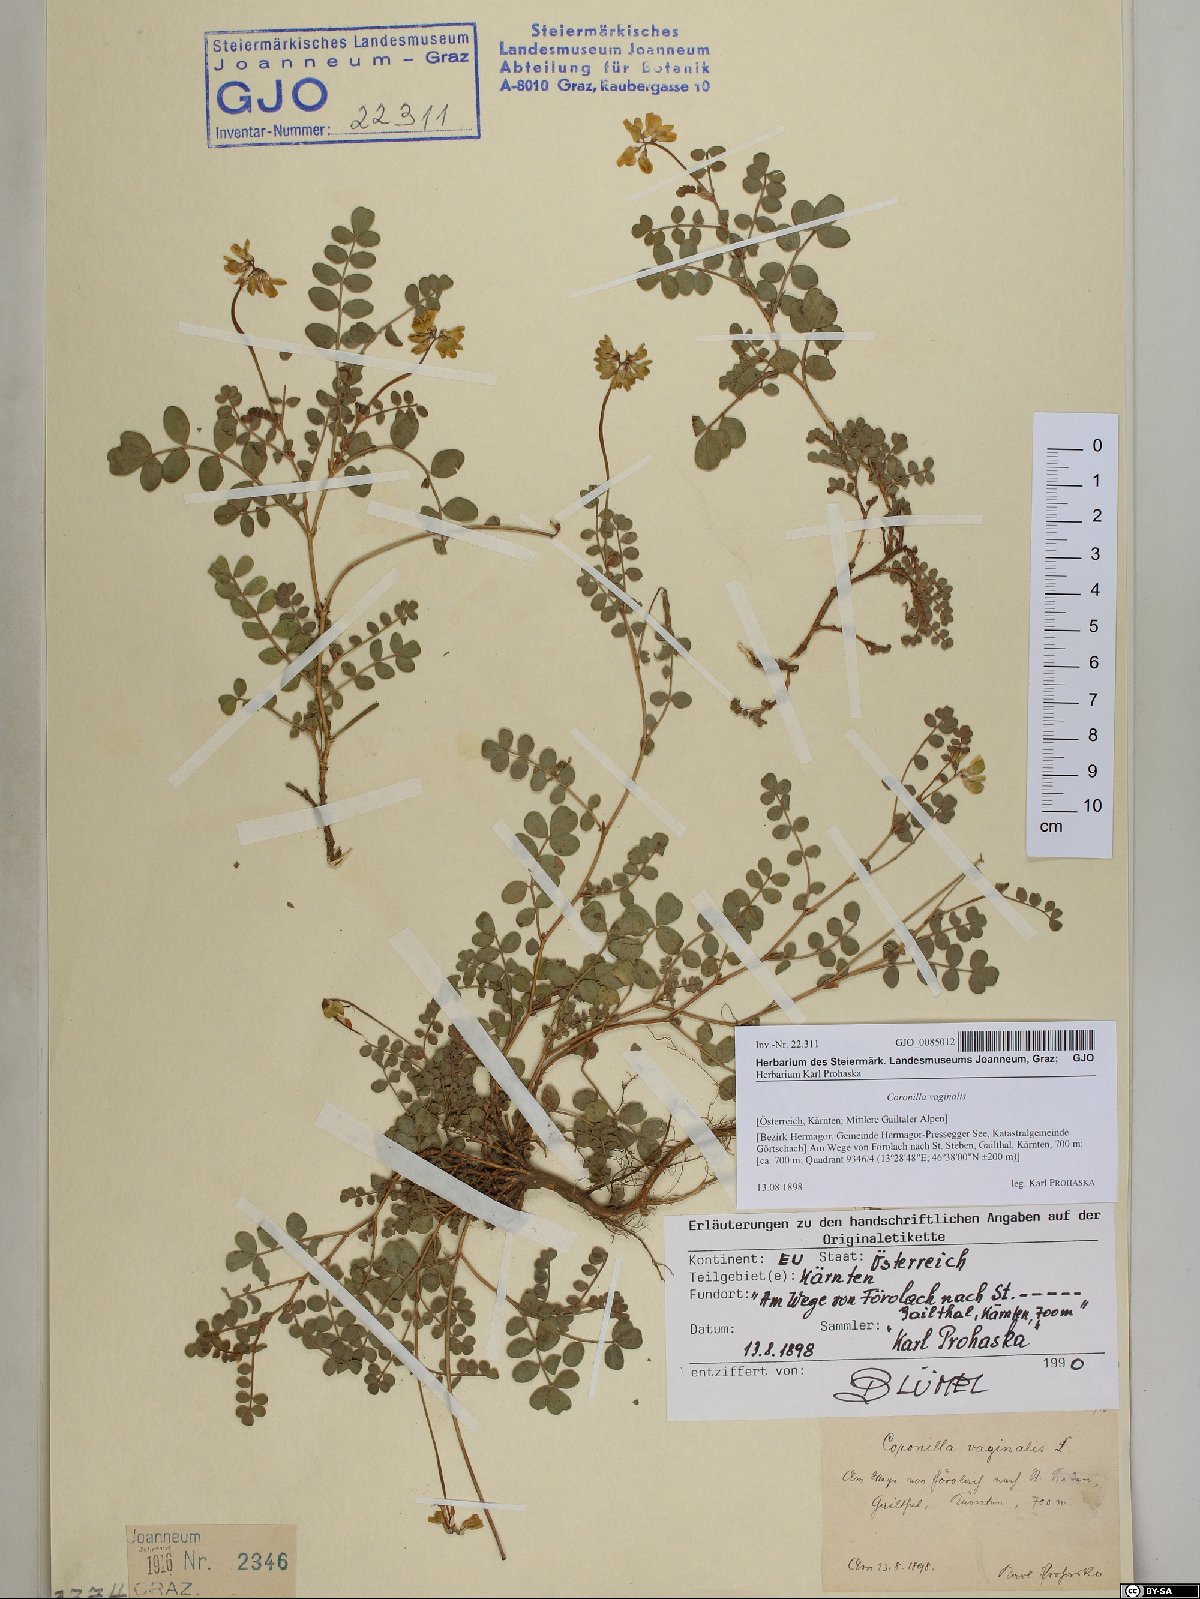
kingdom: Plantae
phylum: Tracheophyta
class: Magnoliopsida
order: Fabales
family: Fabaceae
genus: Coronilla
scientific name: Coronilla vaginalis
